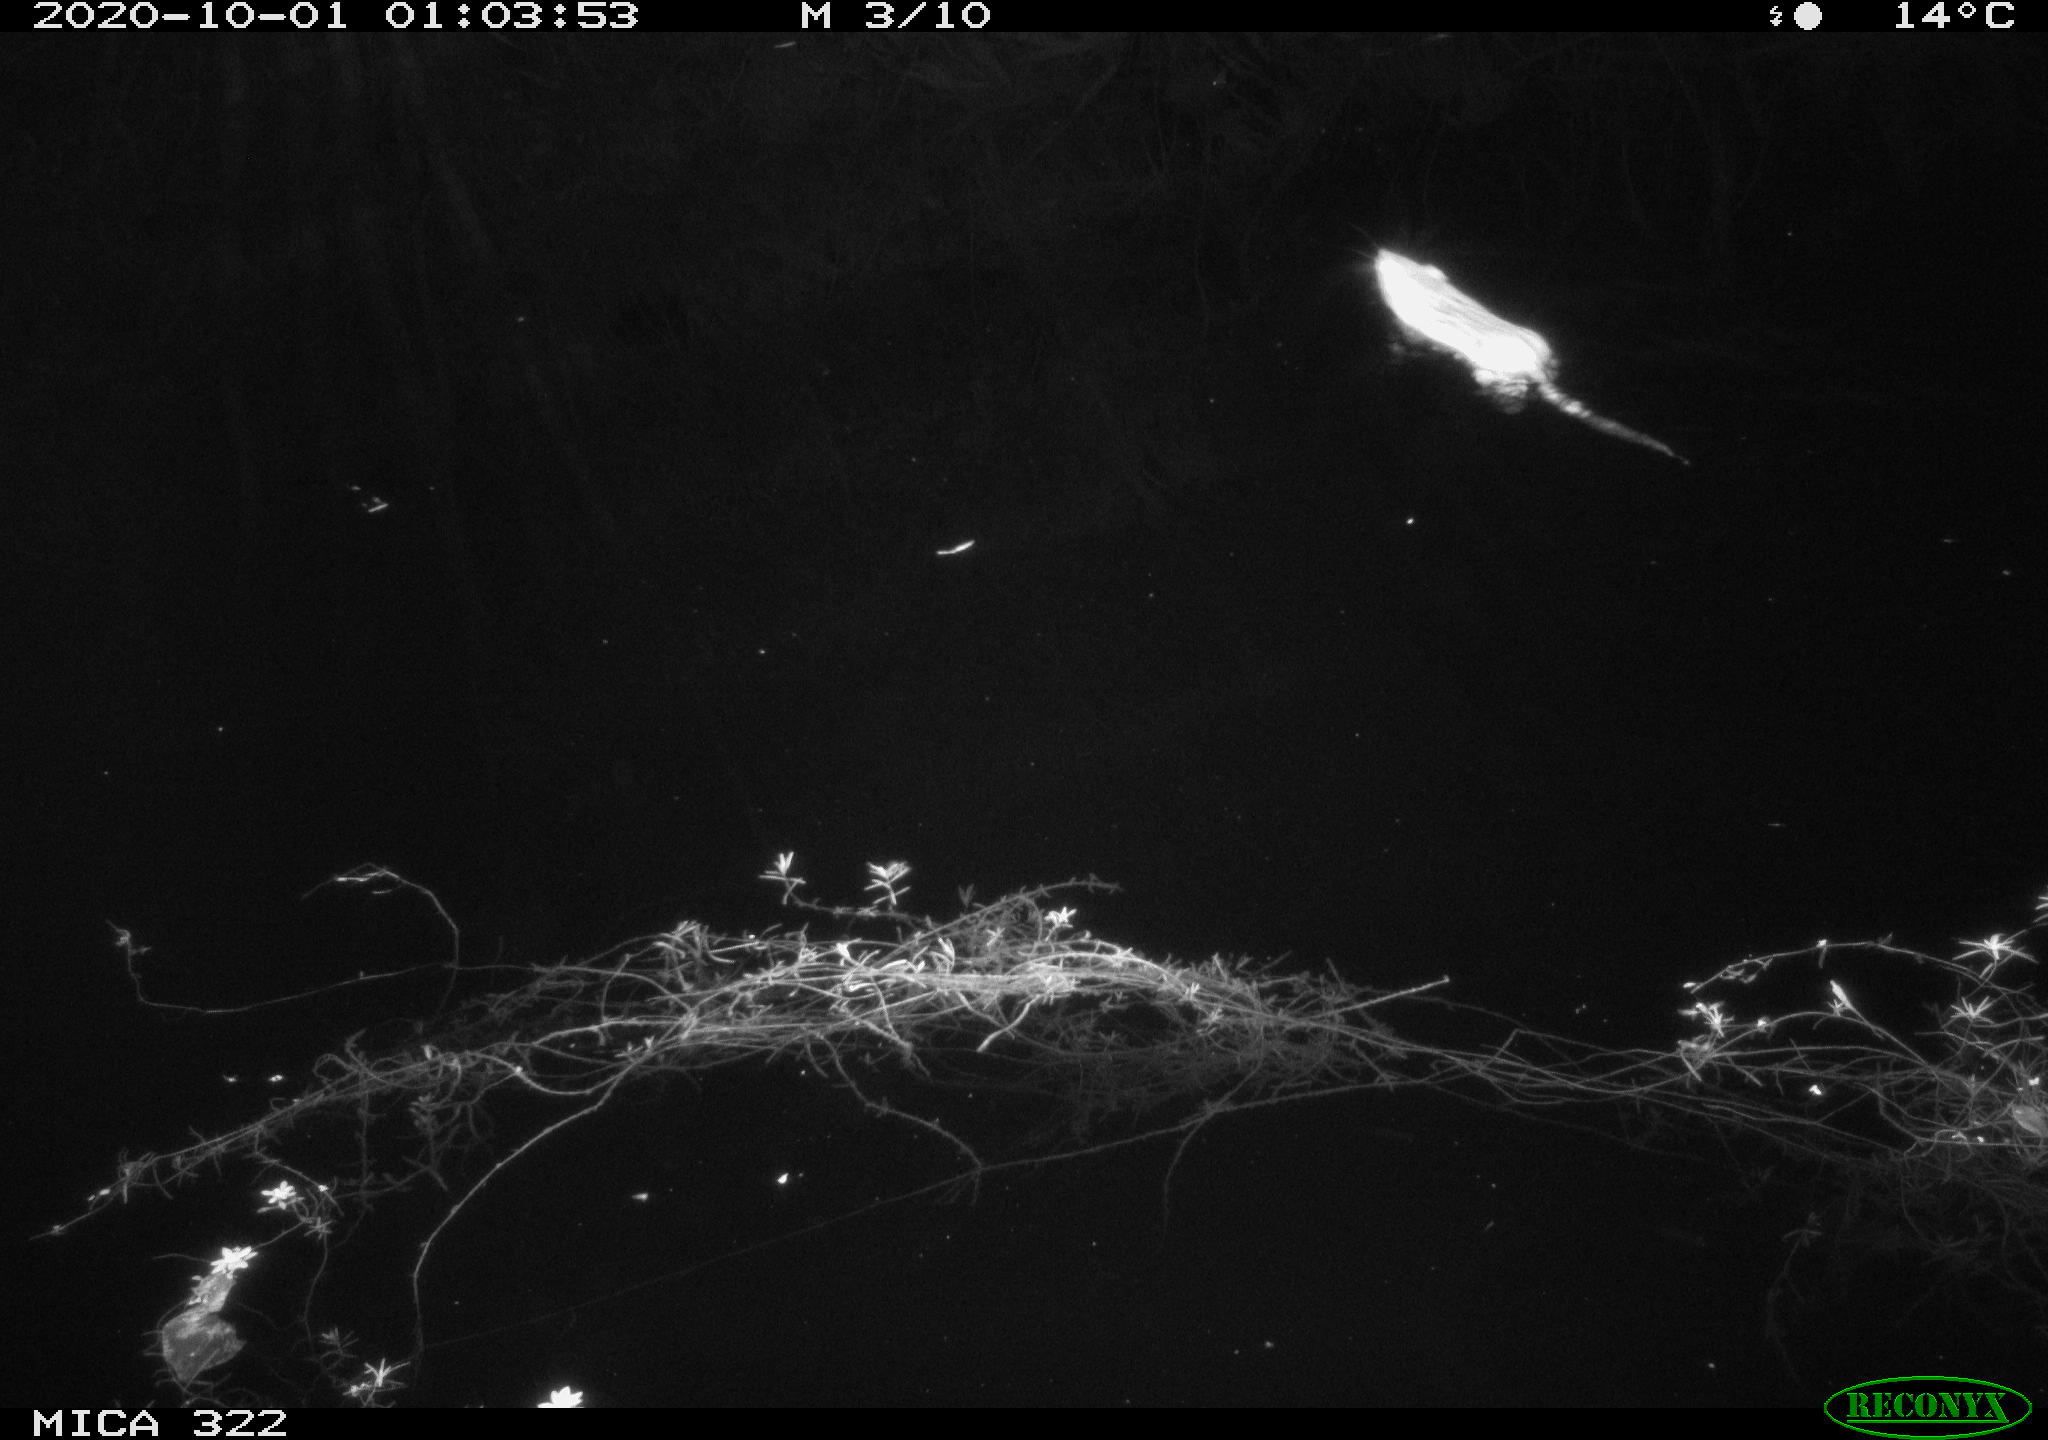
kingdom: Animalia
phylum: Chordata
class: Mammalia
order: Rodentia
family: Muridae
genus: Rattus
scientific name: Rattus norvegicus
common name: Brown rat
